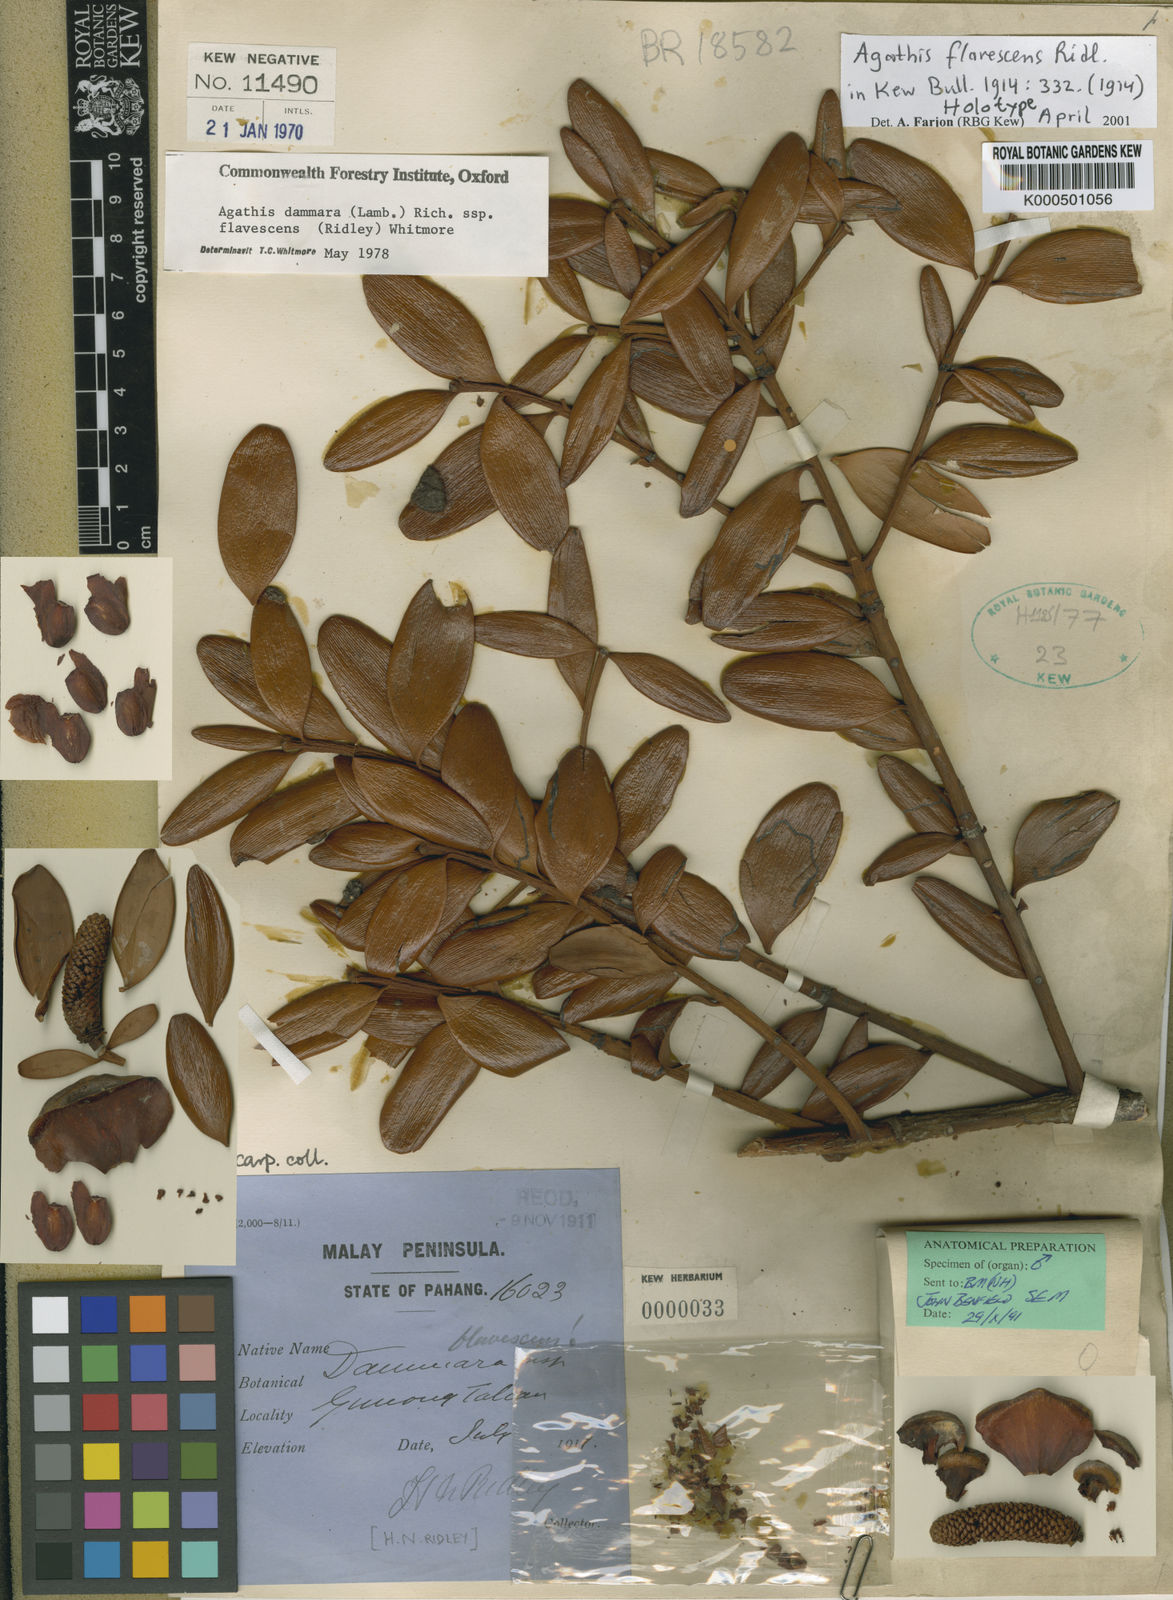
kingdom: Plantae
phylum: Tracheophyta
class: Pinopsida
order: Pinales
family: Araucariaceae
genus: Agathis
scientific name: Agathis flavescens
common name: Tahan agathis
